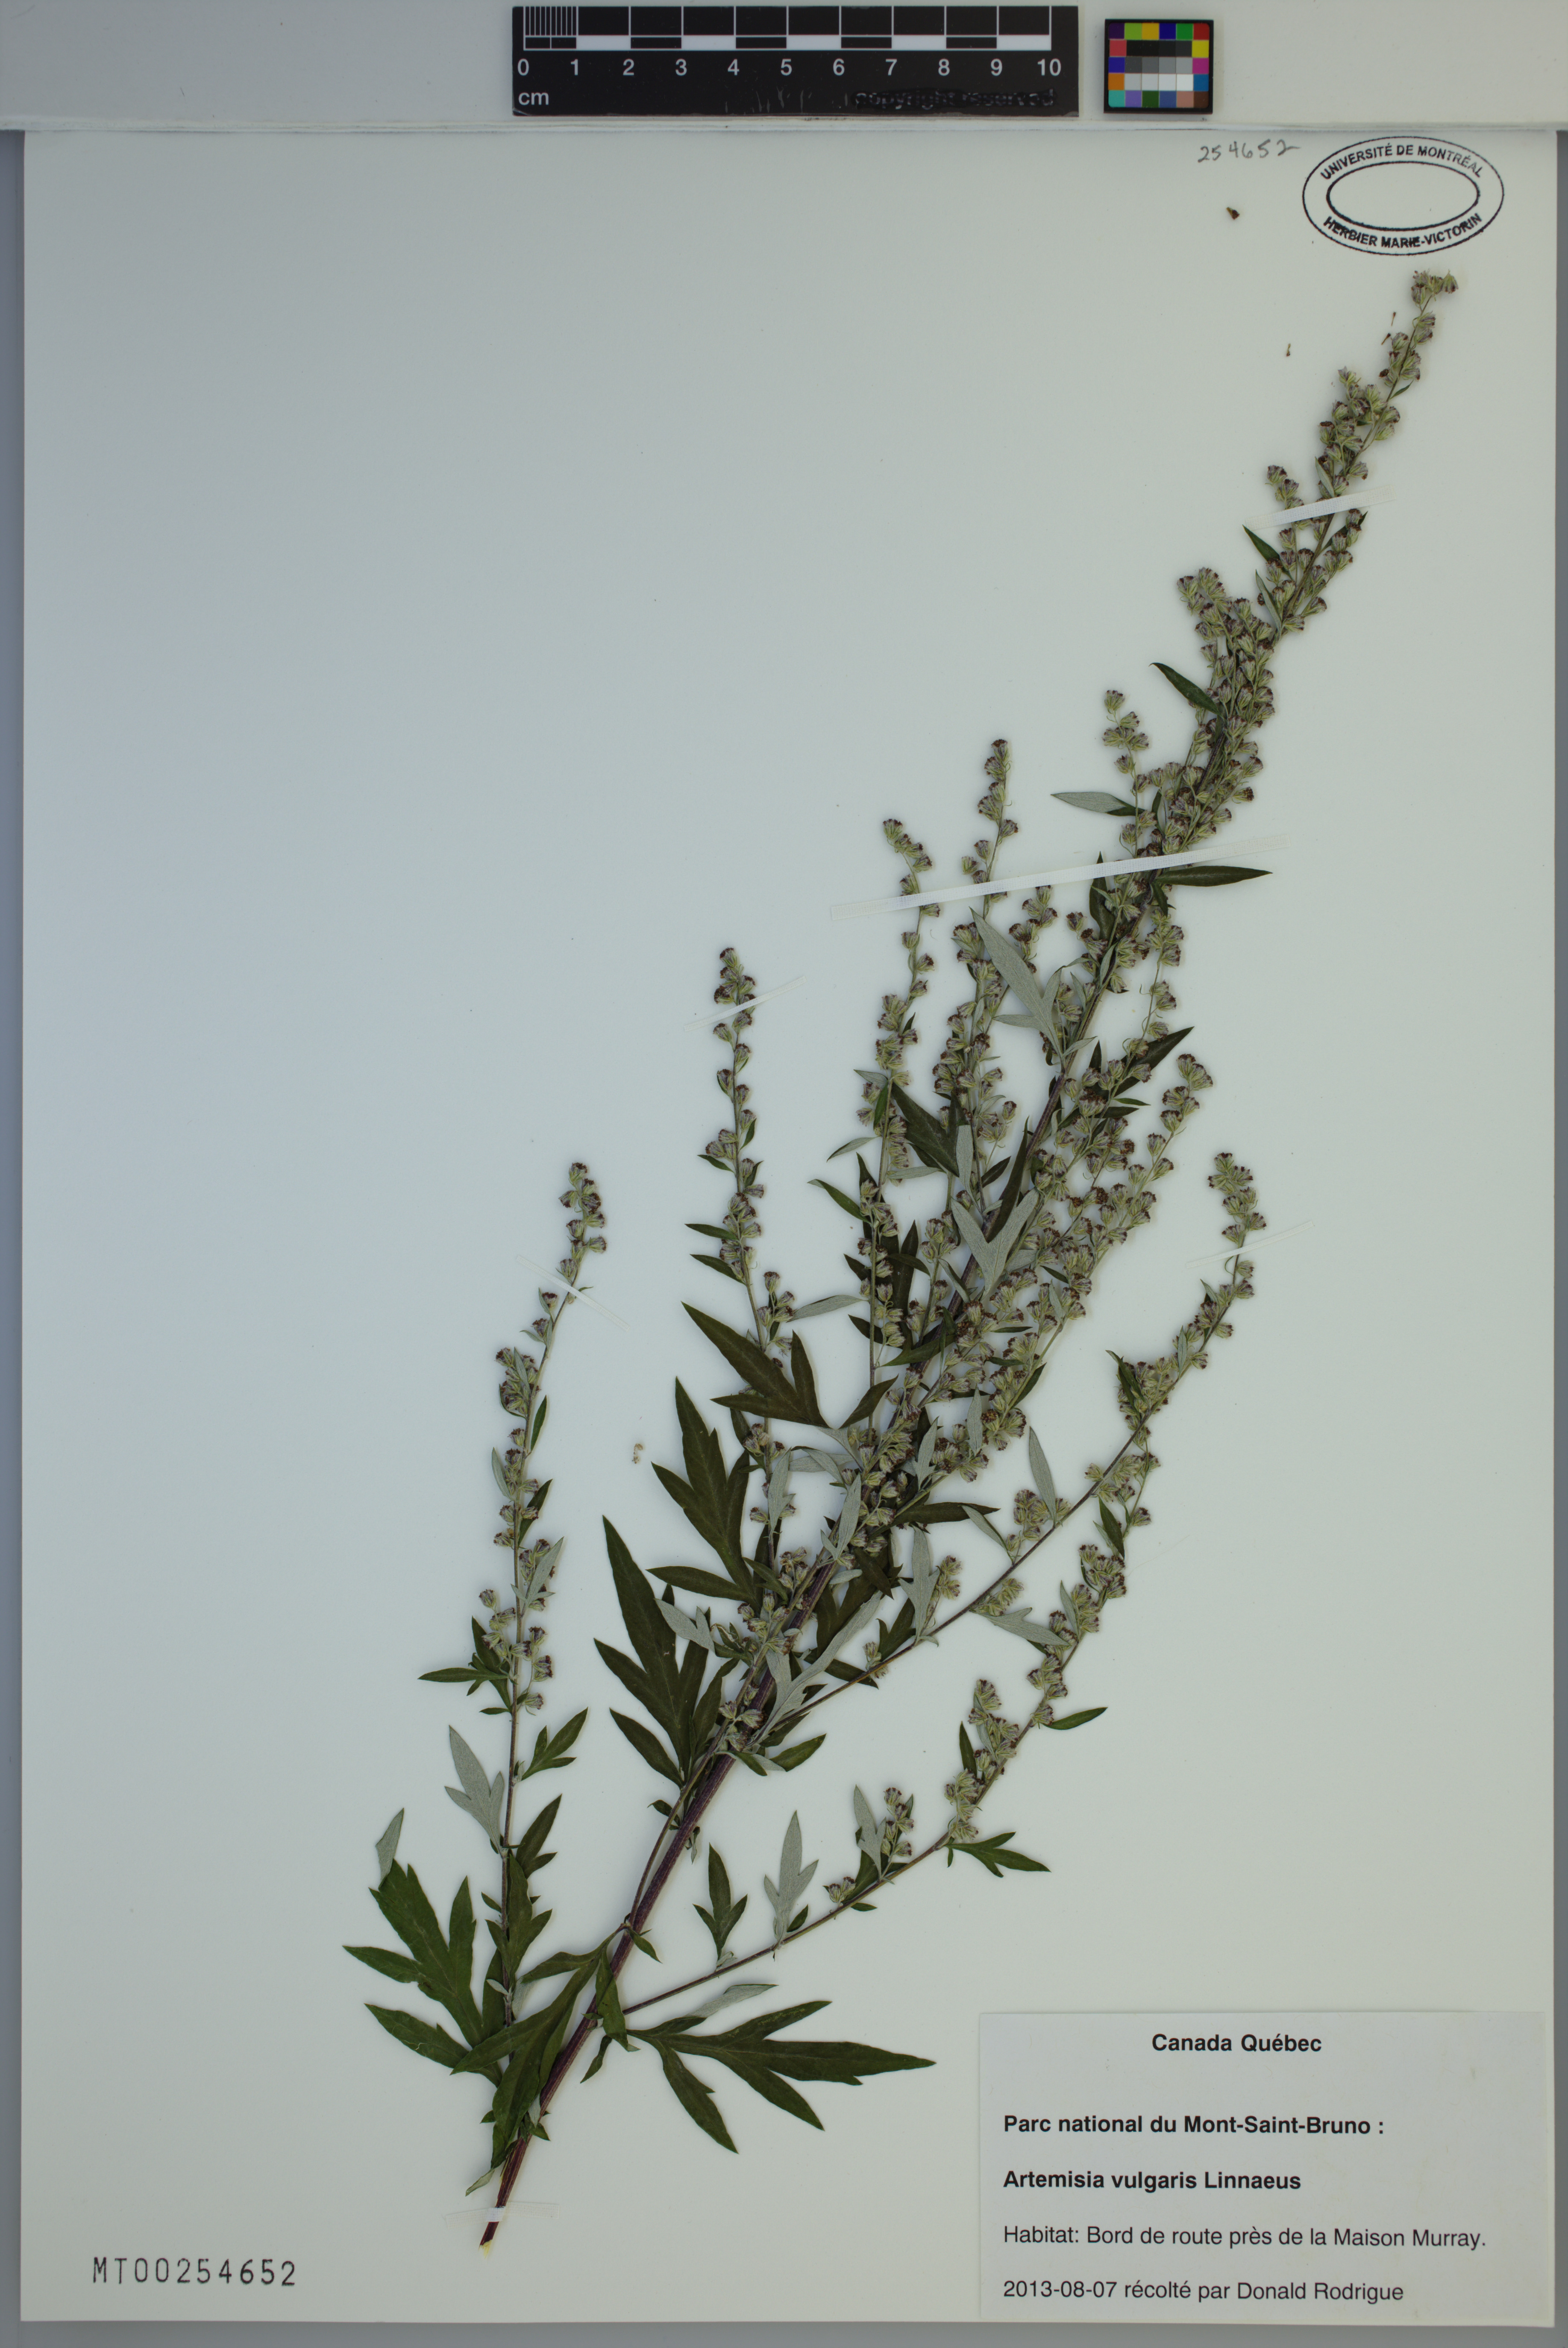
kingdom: Plantae
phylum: Tracheophyta
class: Magnoliopsida
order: Asterales
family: Asteraceae
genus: Artemisia
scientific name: Artemisia vulgaris
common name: Mugwort
